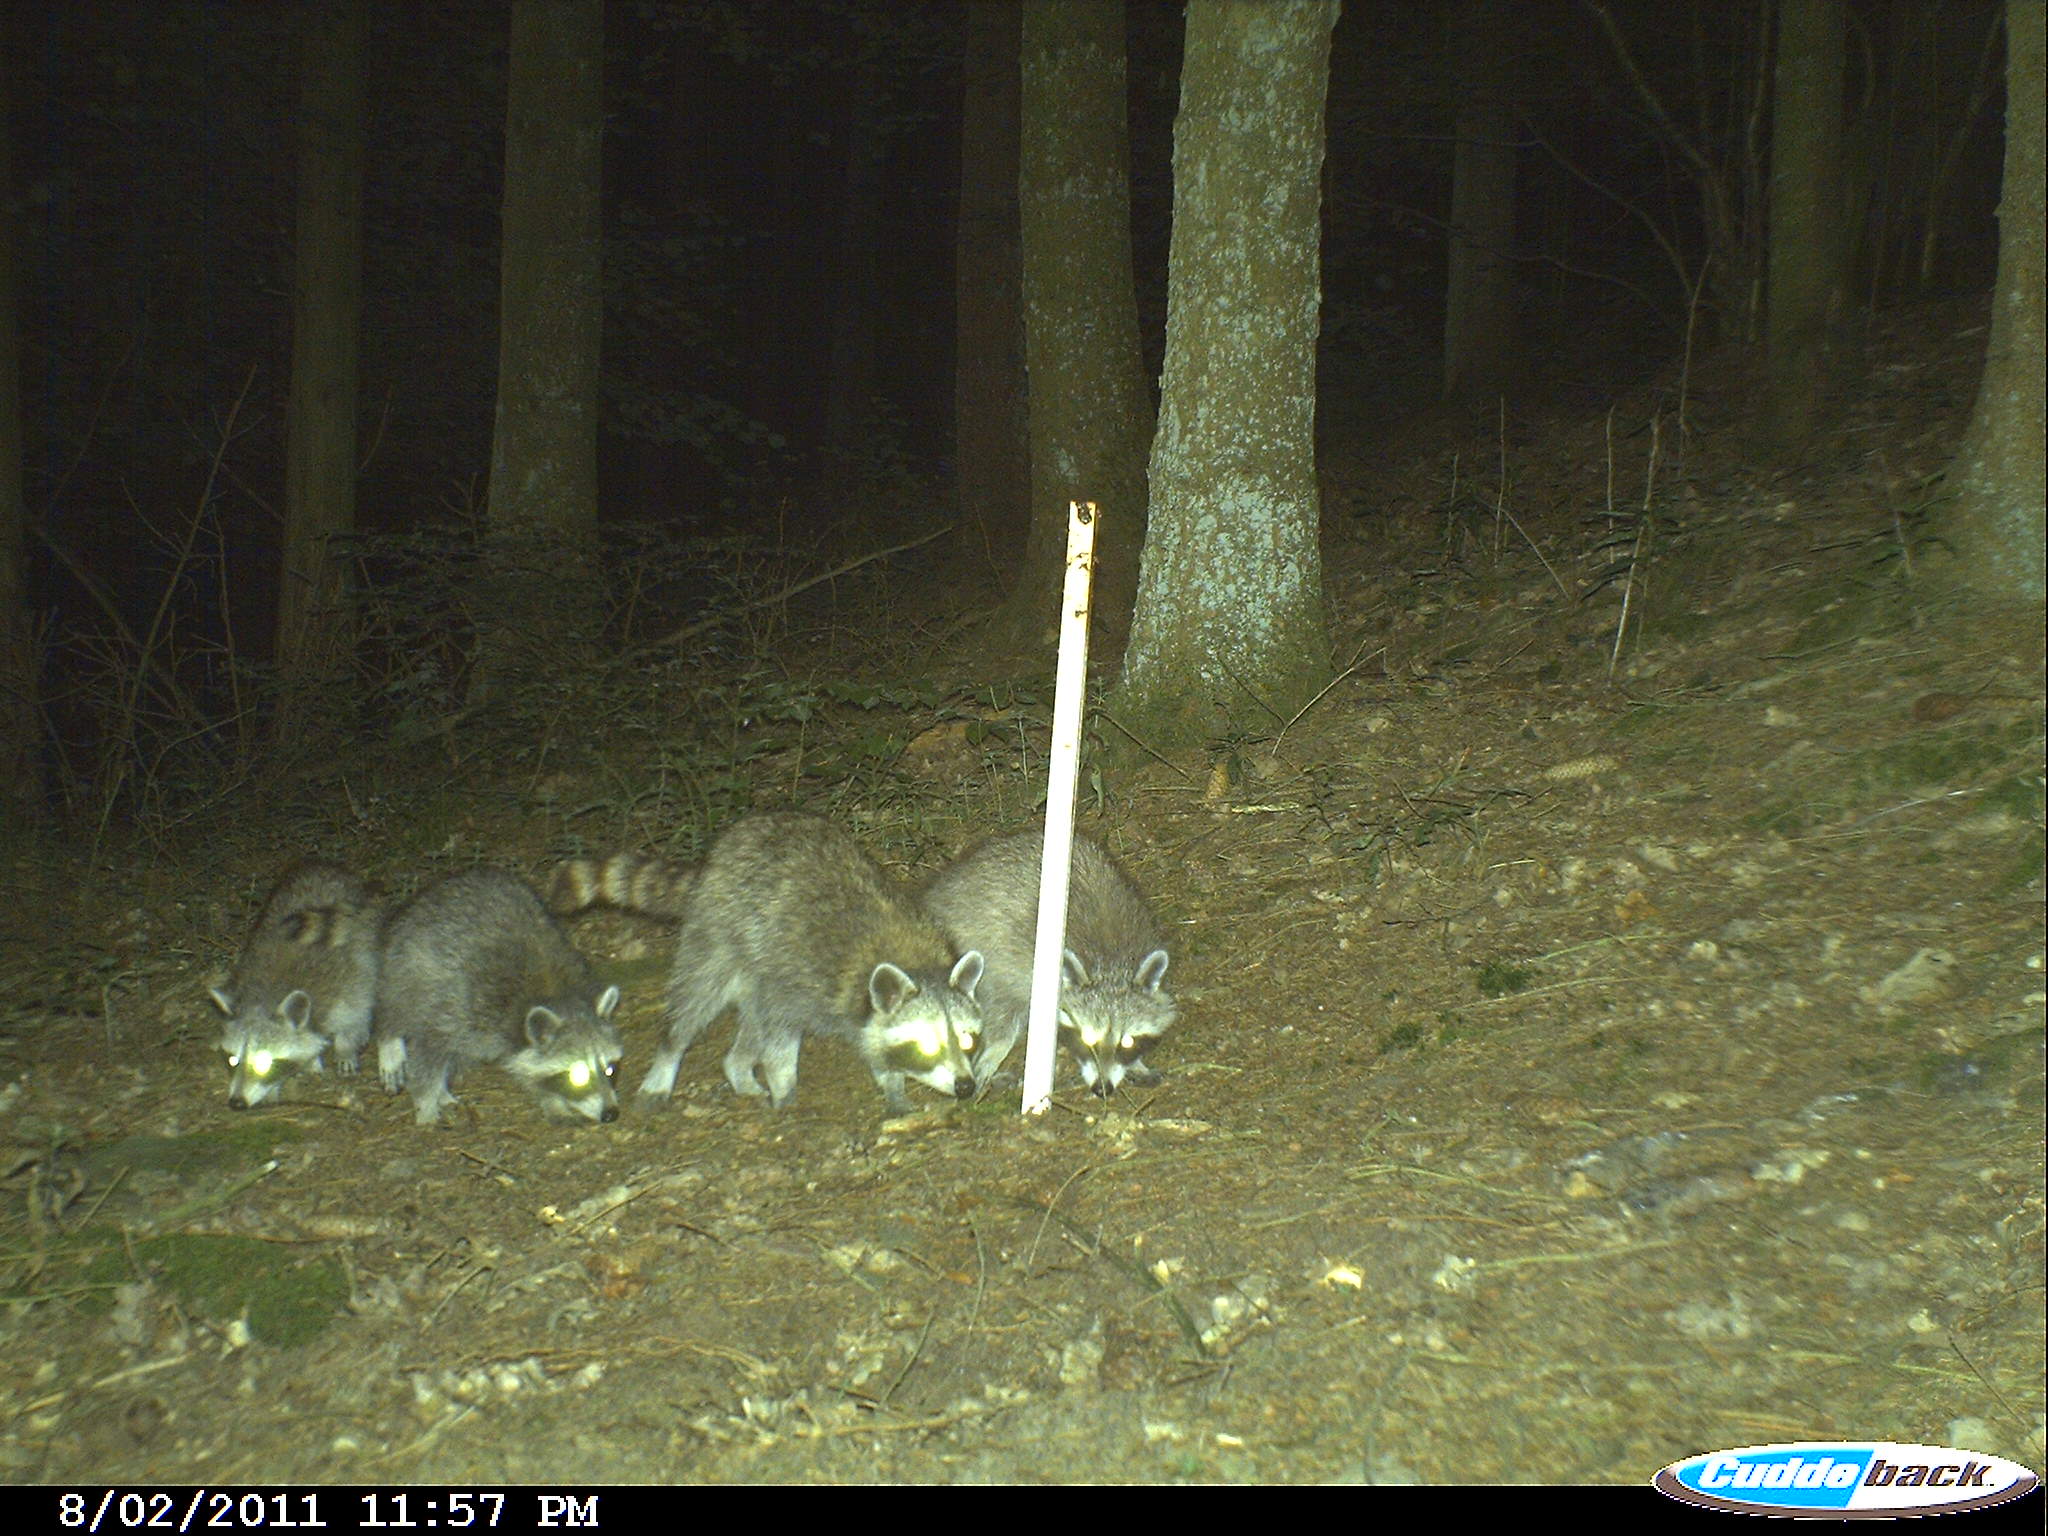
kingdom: Animalia
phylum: Chordata
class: Mammalia
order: Carnivora
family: Procyonidae
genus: Procyon
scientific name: Procyon lotor
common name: Raccoon
